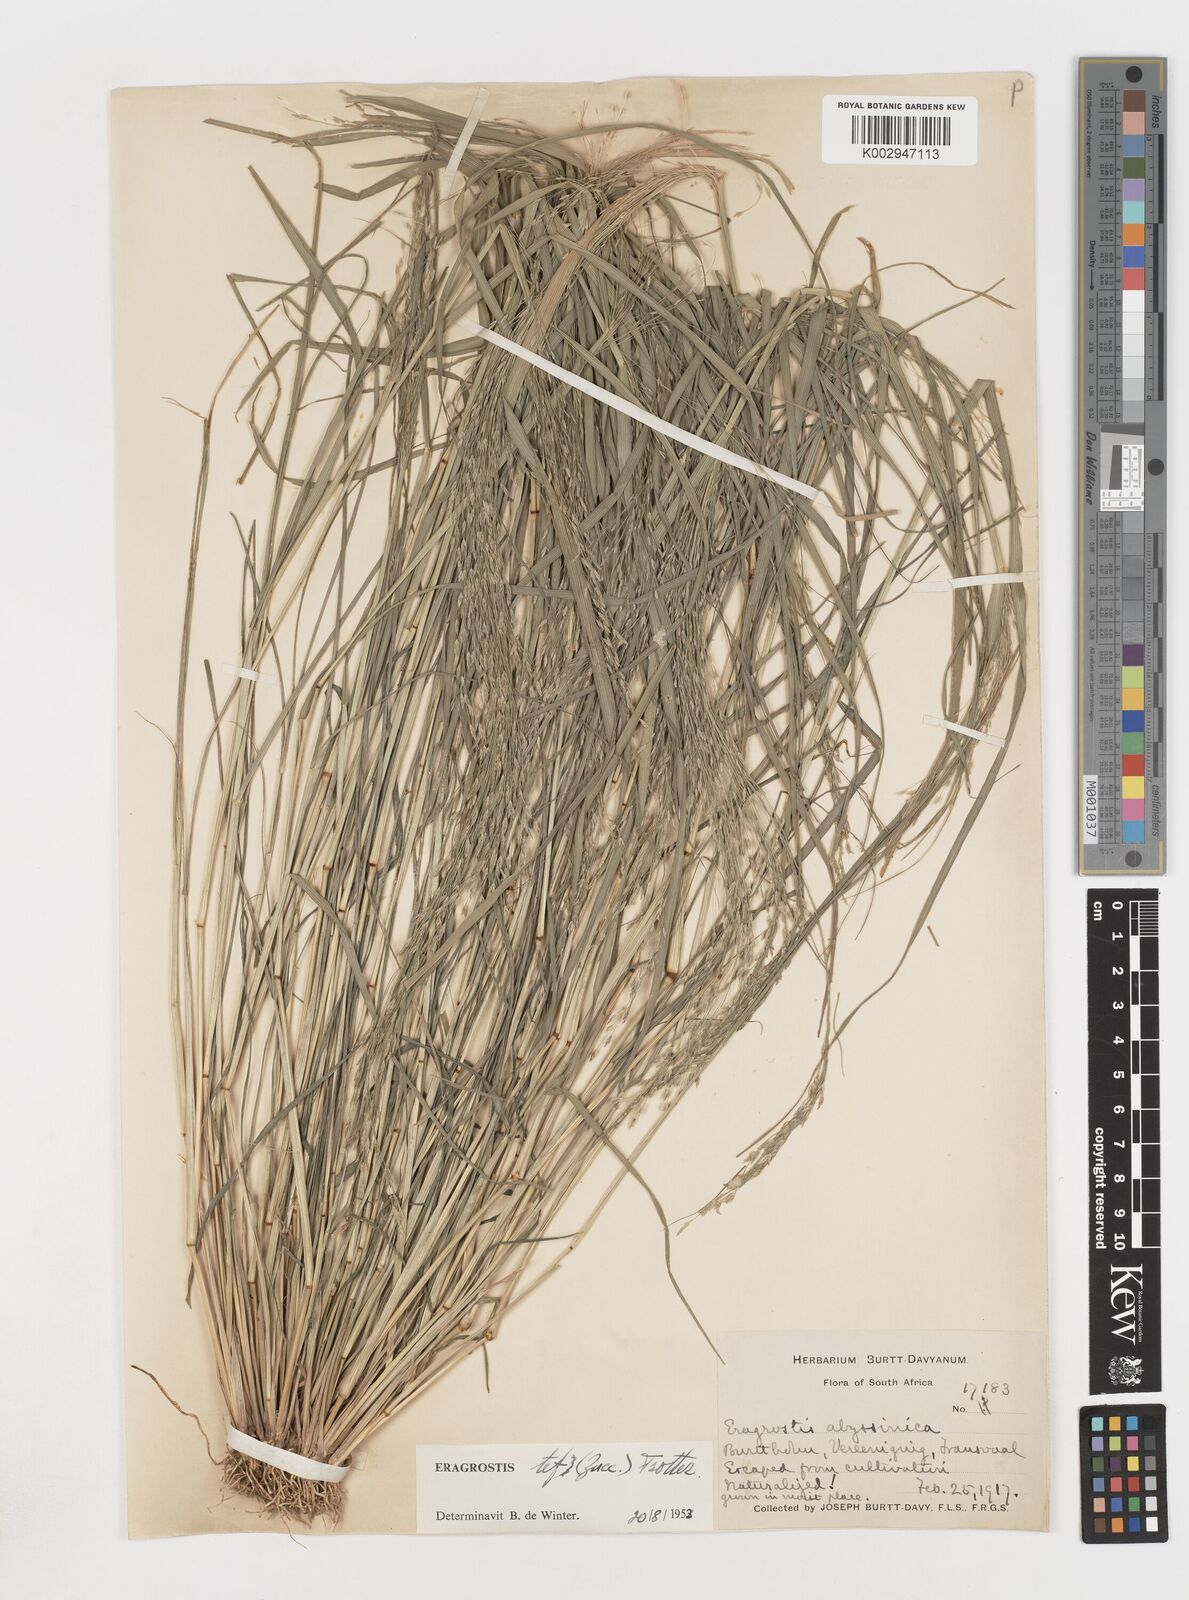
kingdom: Plantae
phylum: Tracheophyta
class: Liliopsida
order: Poales
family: Poaceae
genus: Eragrostis
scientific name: Eragrostis tef
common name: Teff
